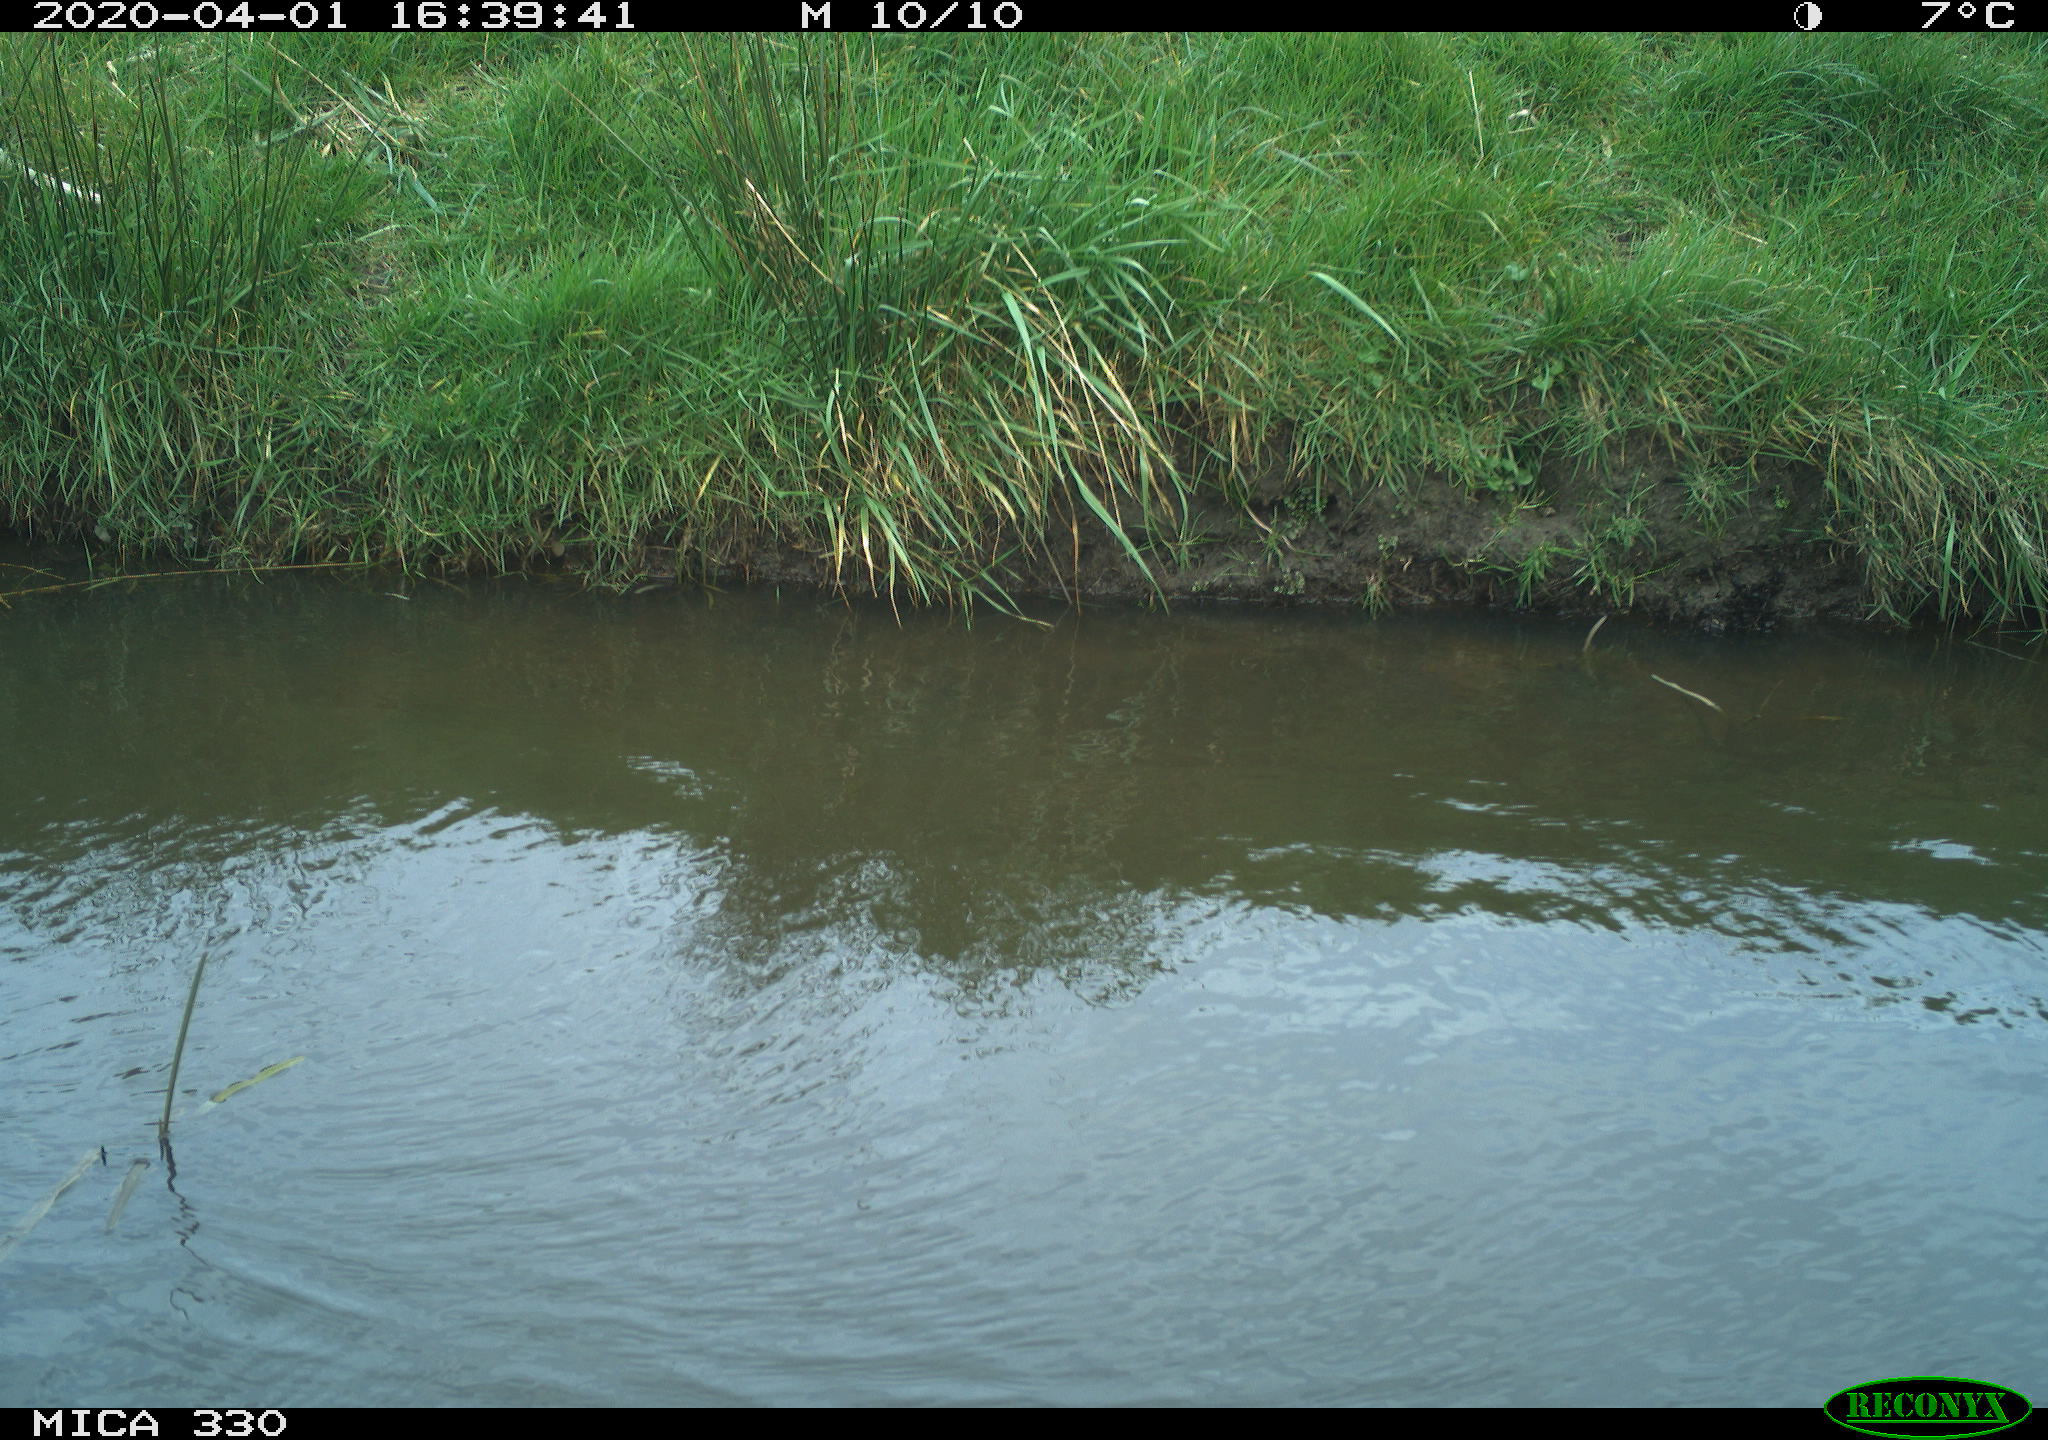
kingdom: Animalia
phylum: Chordata
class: Aves
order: Anseriformes
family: Anatidae
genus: Anas
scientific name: Anas platyrhynchos
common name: Mallard
